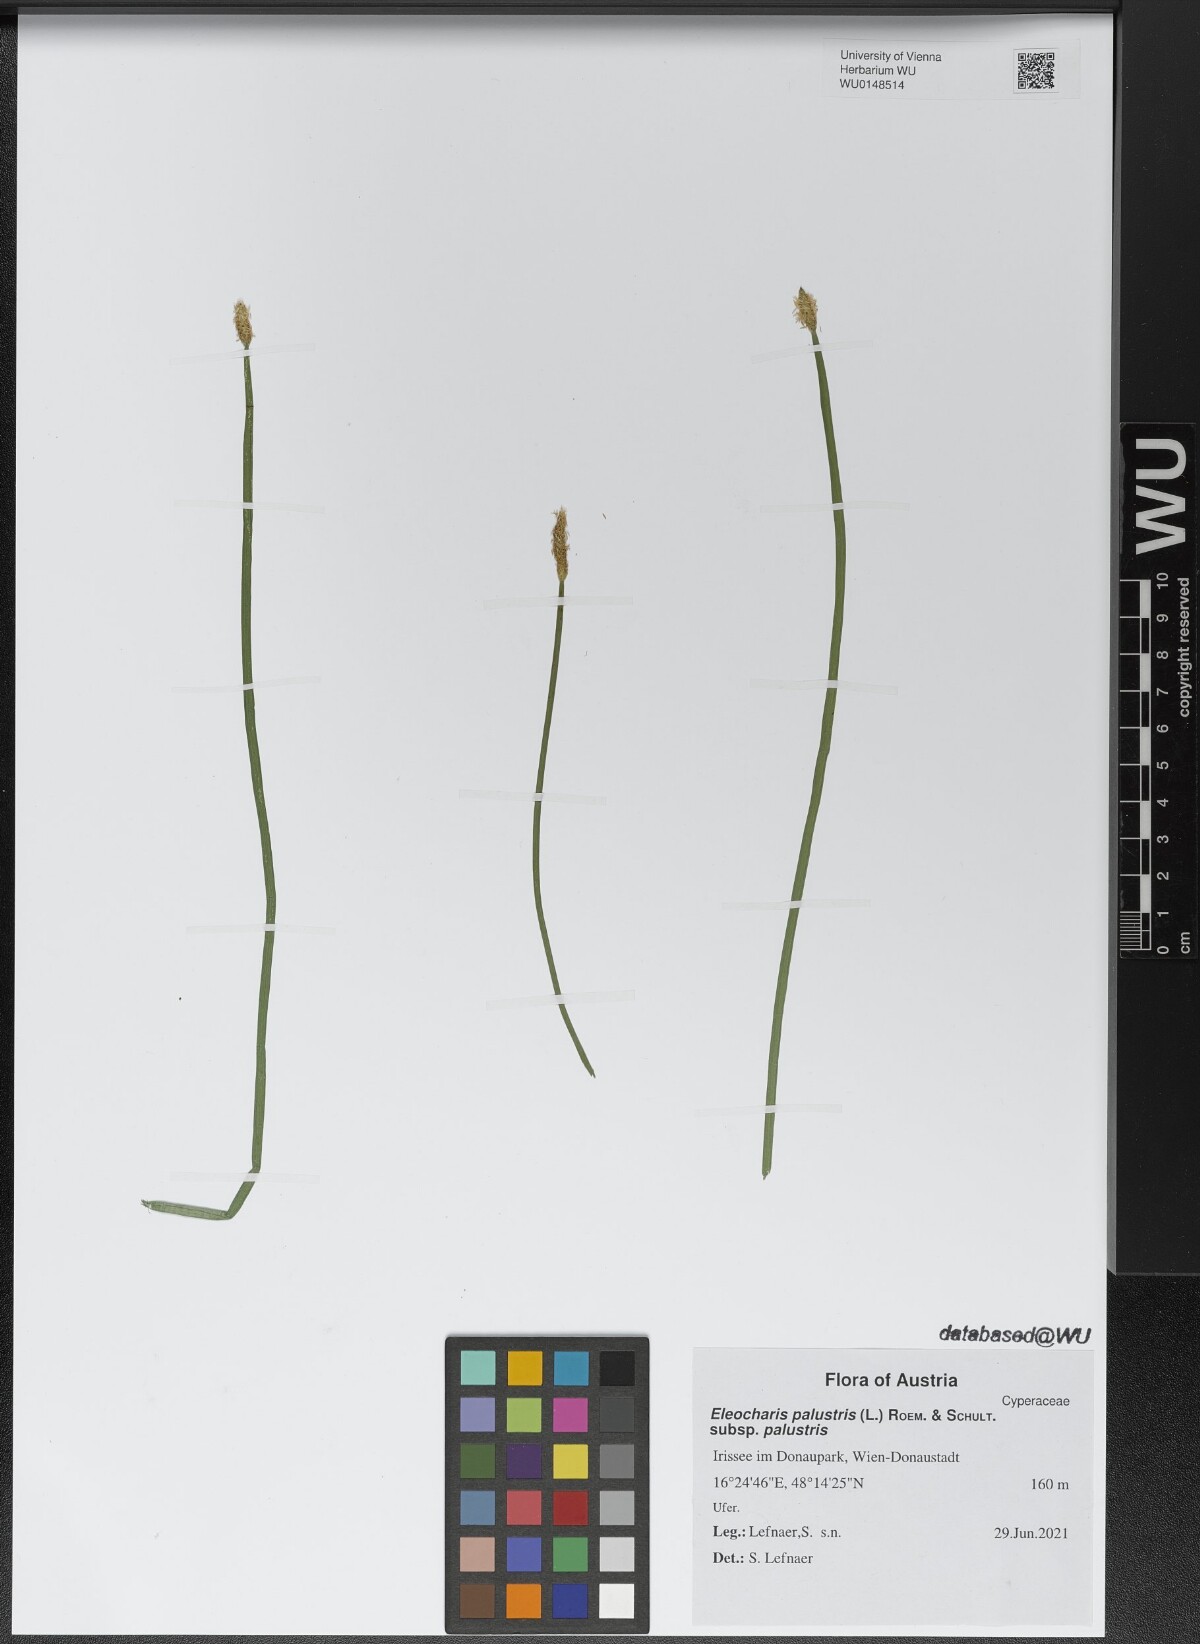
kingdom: Plantae
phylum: Tracheophyta
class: Liliopsida
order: Poales
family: Cyperaceae
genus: Eleocharis
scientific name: Eleocharis palustris
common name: Common spike-rush
